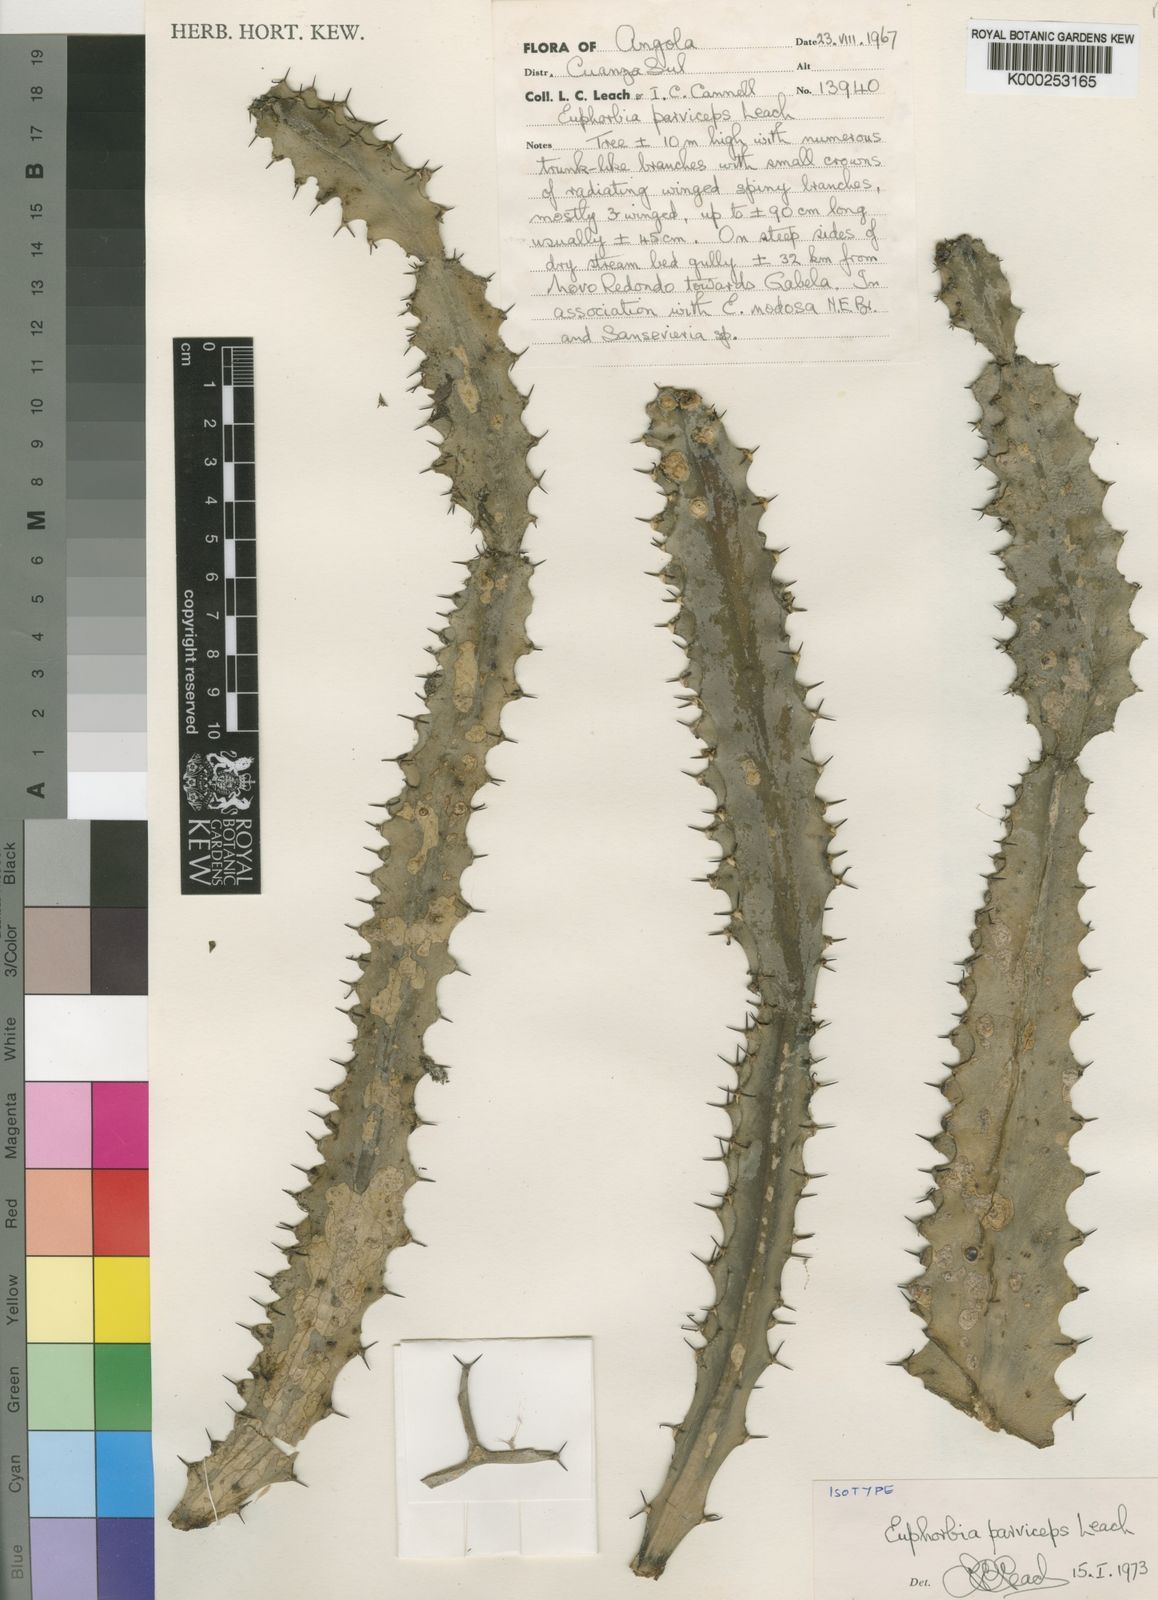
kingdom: Plantae
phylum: Tracheophyta
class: Magnoliopsida
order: Malpighiales
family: Euphorbiaceae
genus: Euphorbia
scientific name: Euphorbia parviceps
